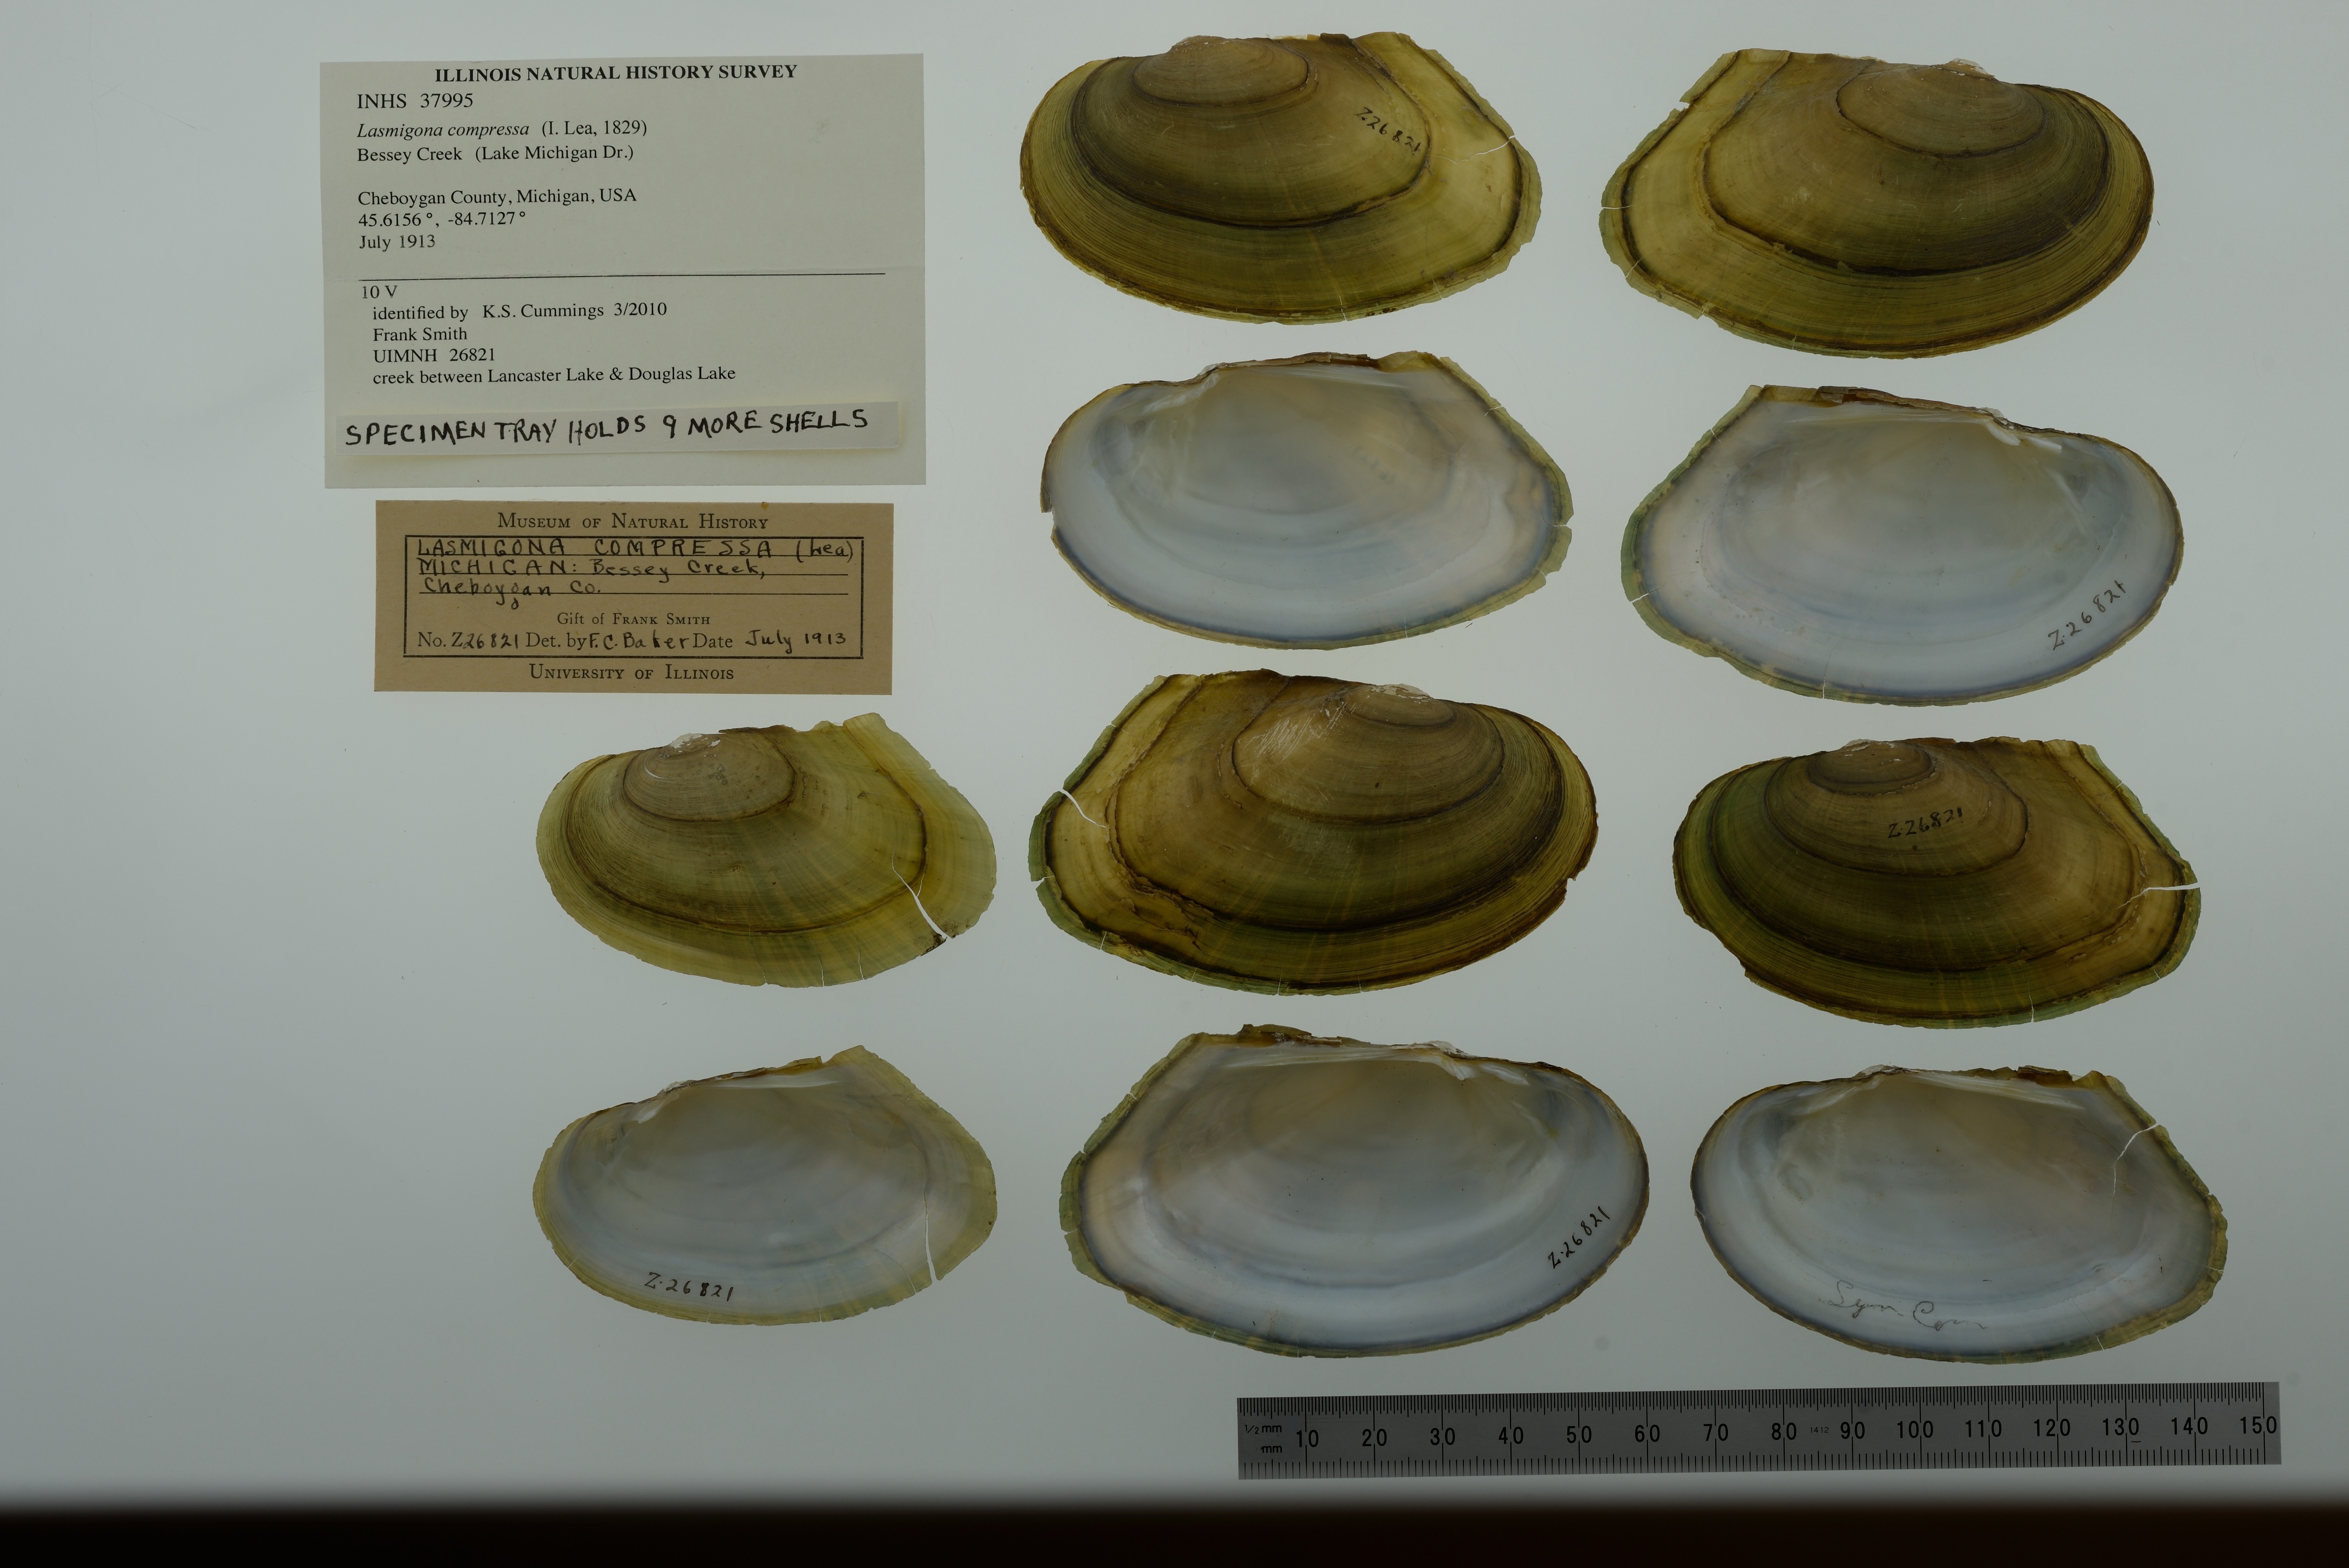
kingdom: Animalia
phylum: Mollusca
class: Bivalvia
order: Unionida
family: Unionidae
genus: Lasmigona
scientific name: Lasmigona compressa
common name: Creek heelsplitter
